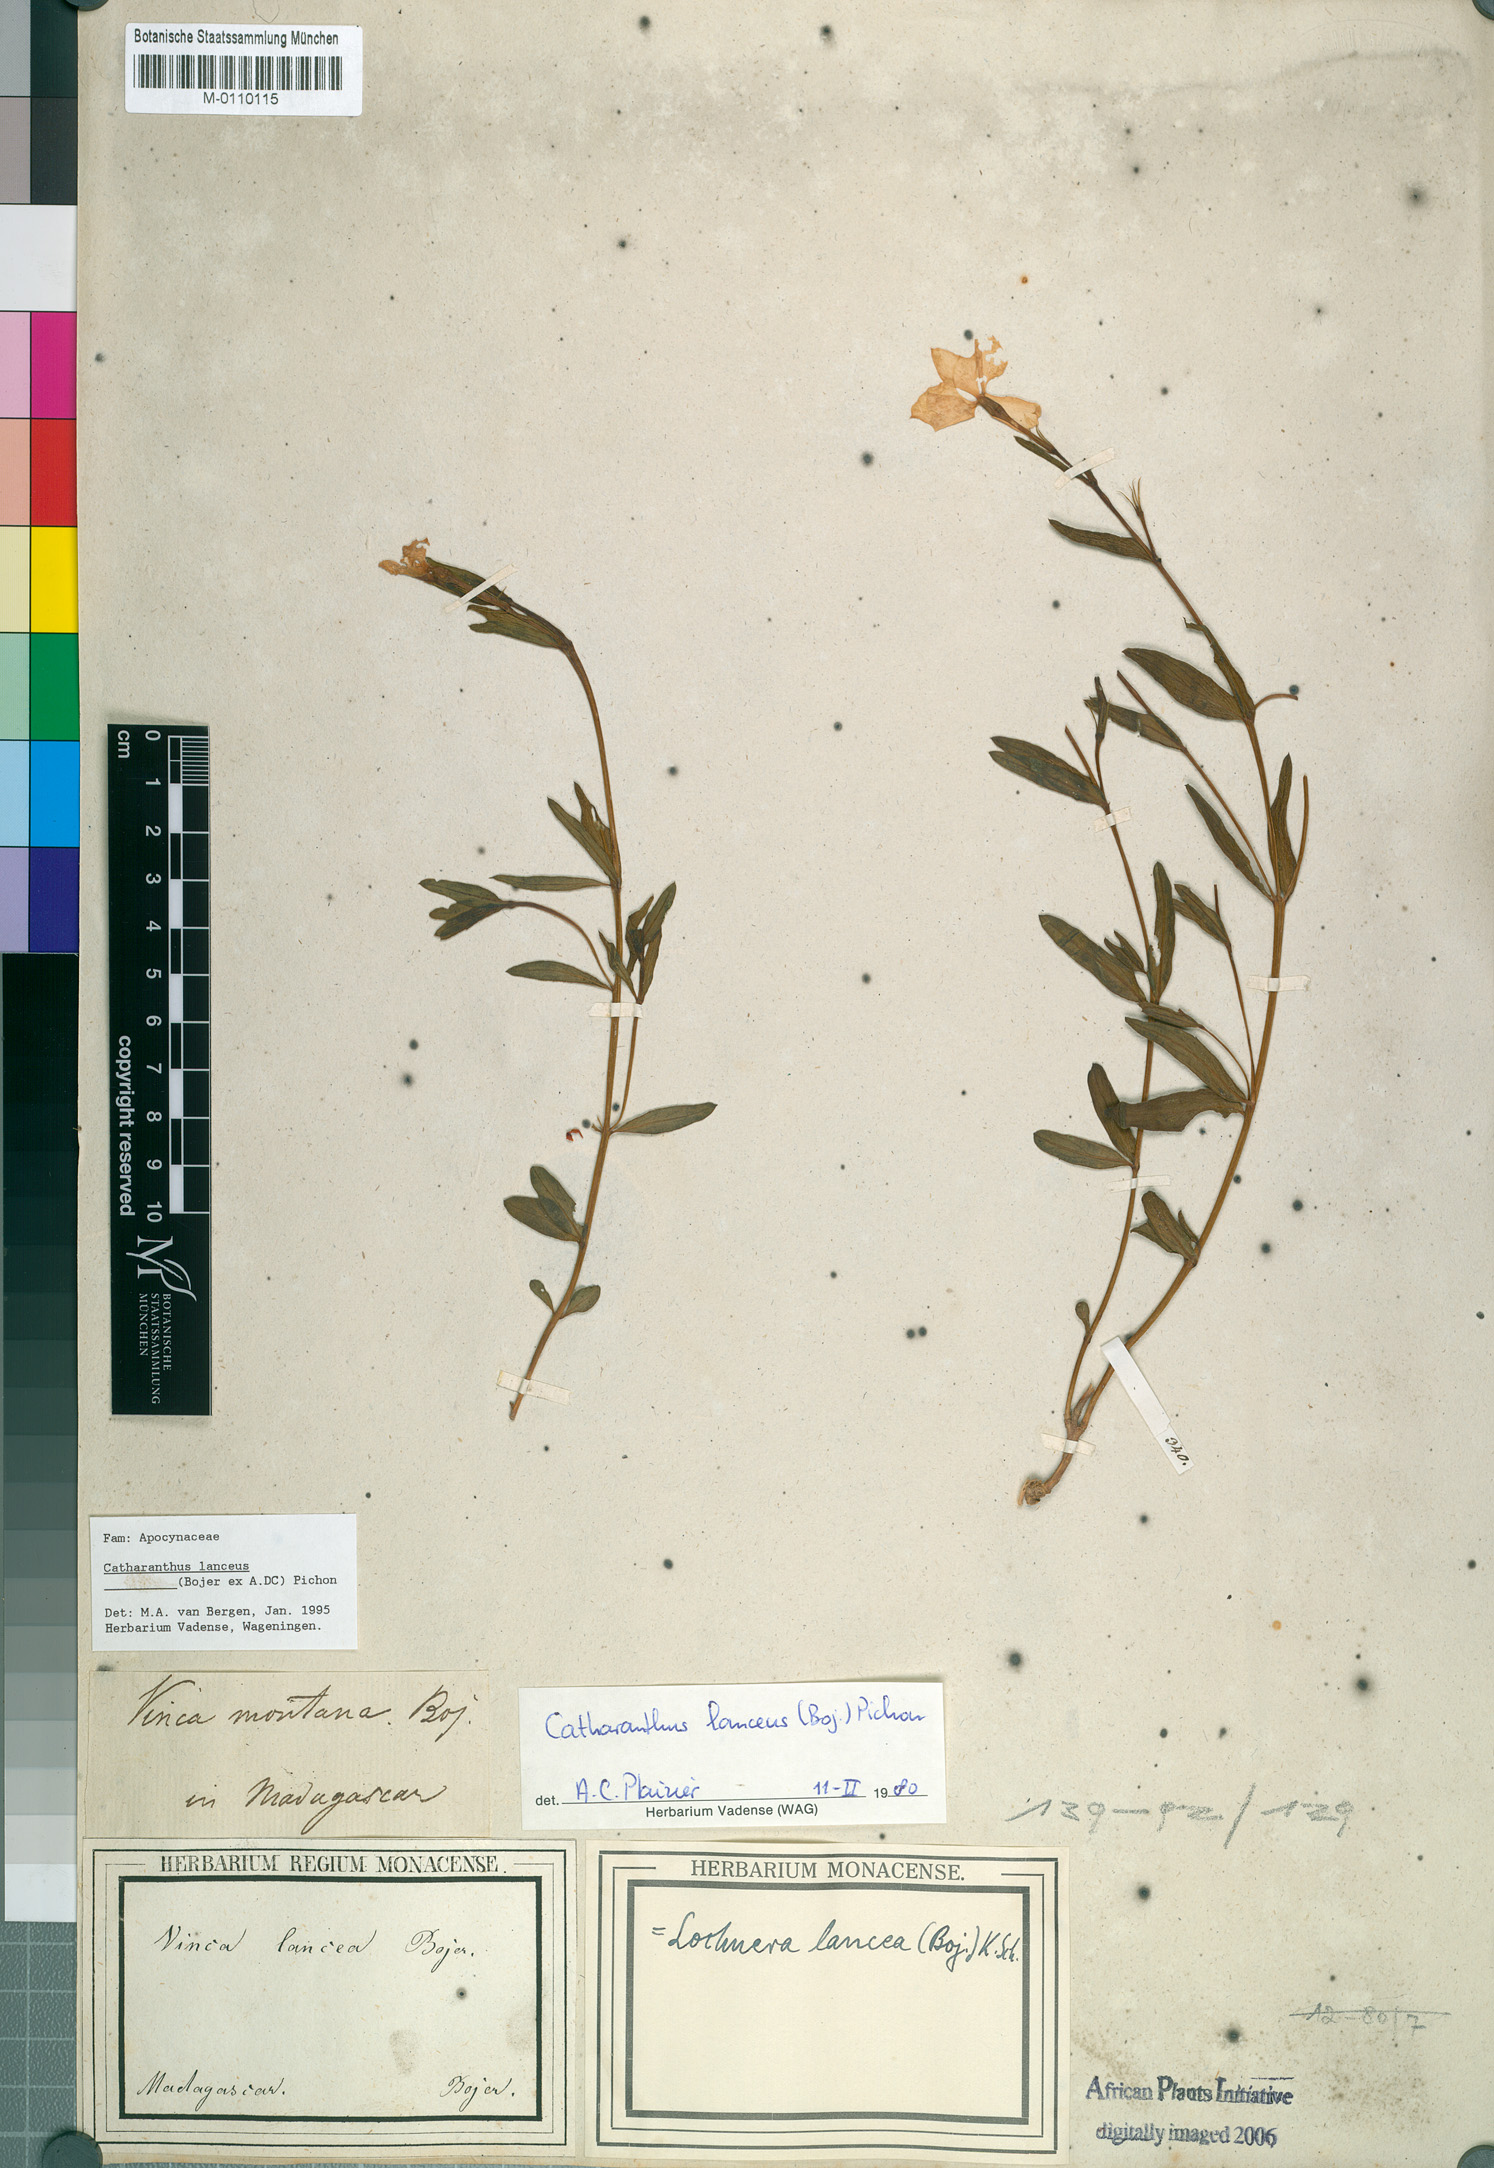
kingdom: Plantae
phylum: Tracheophyta
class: Magnoliopsida
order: Gentianales
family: Apocynaceae
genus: Catharanthus
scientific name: Catharanthus lanceus
